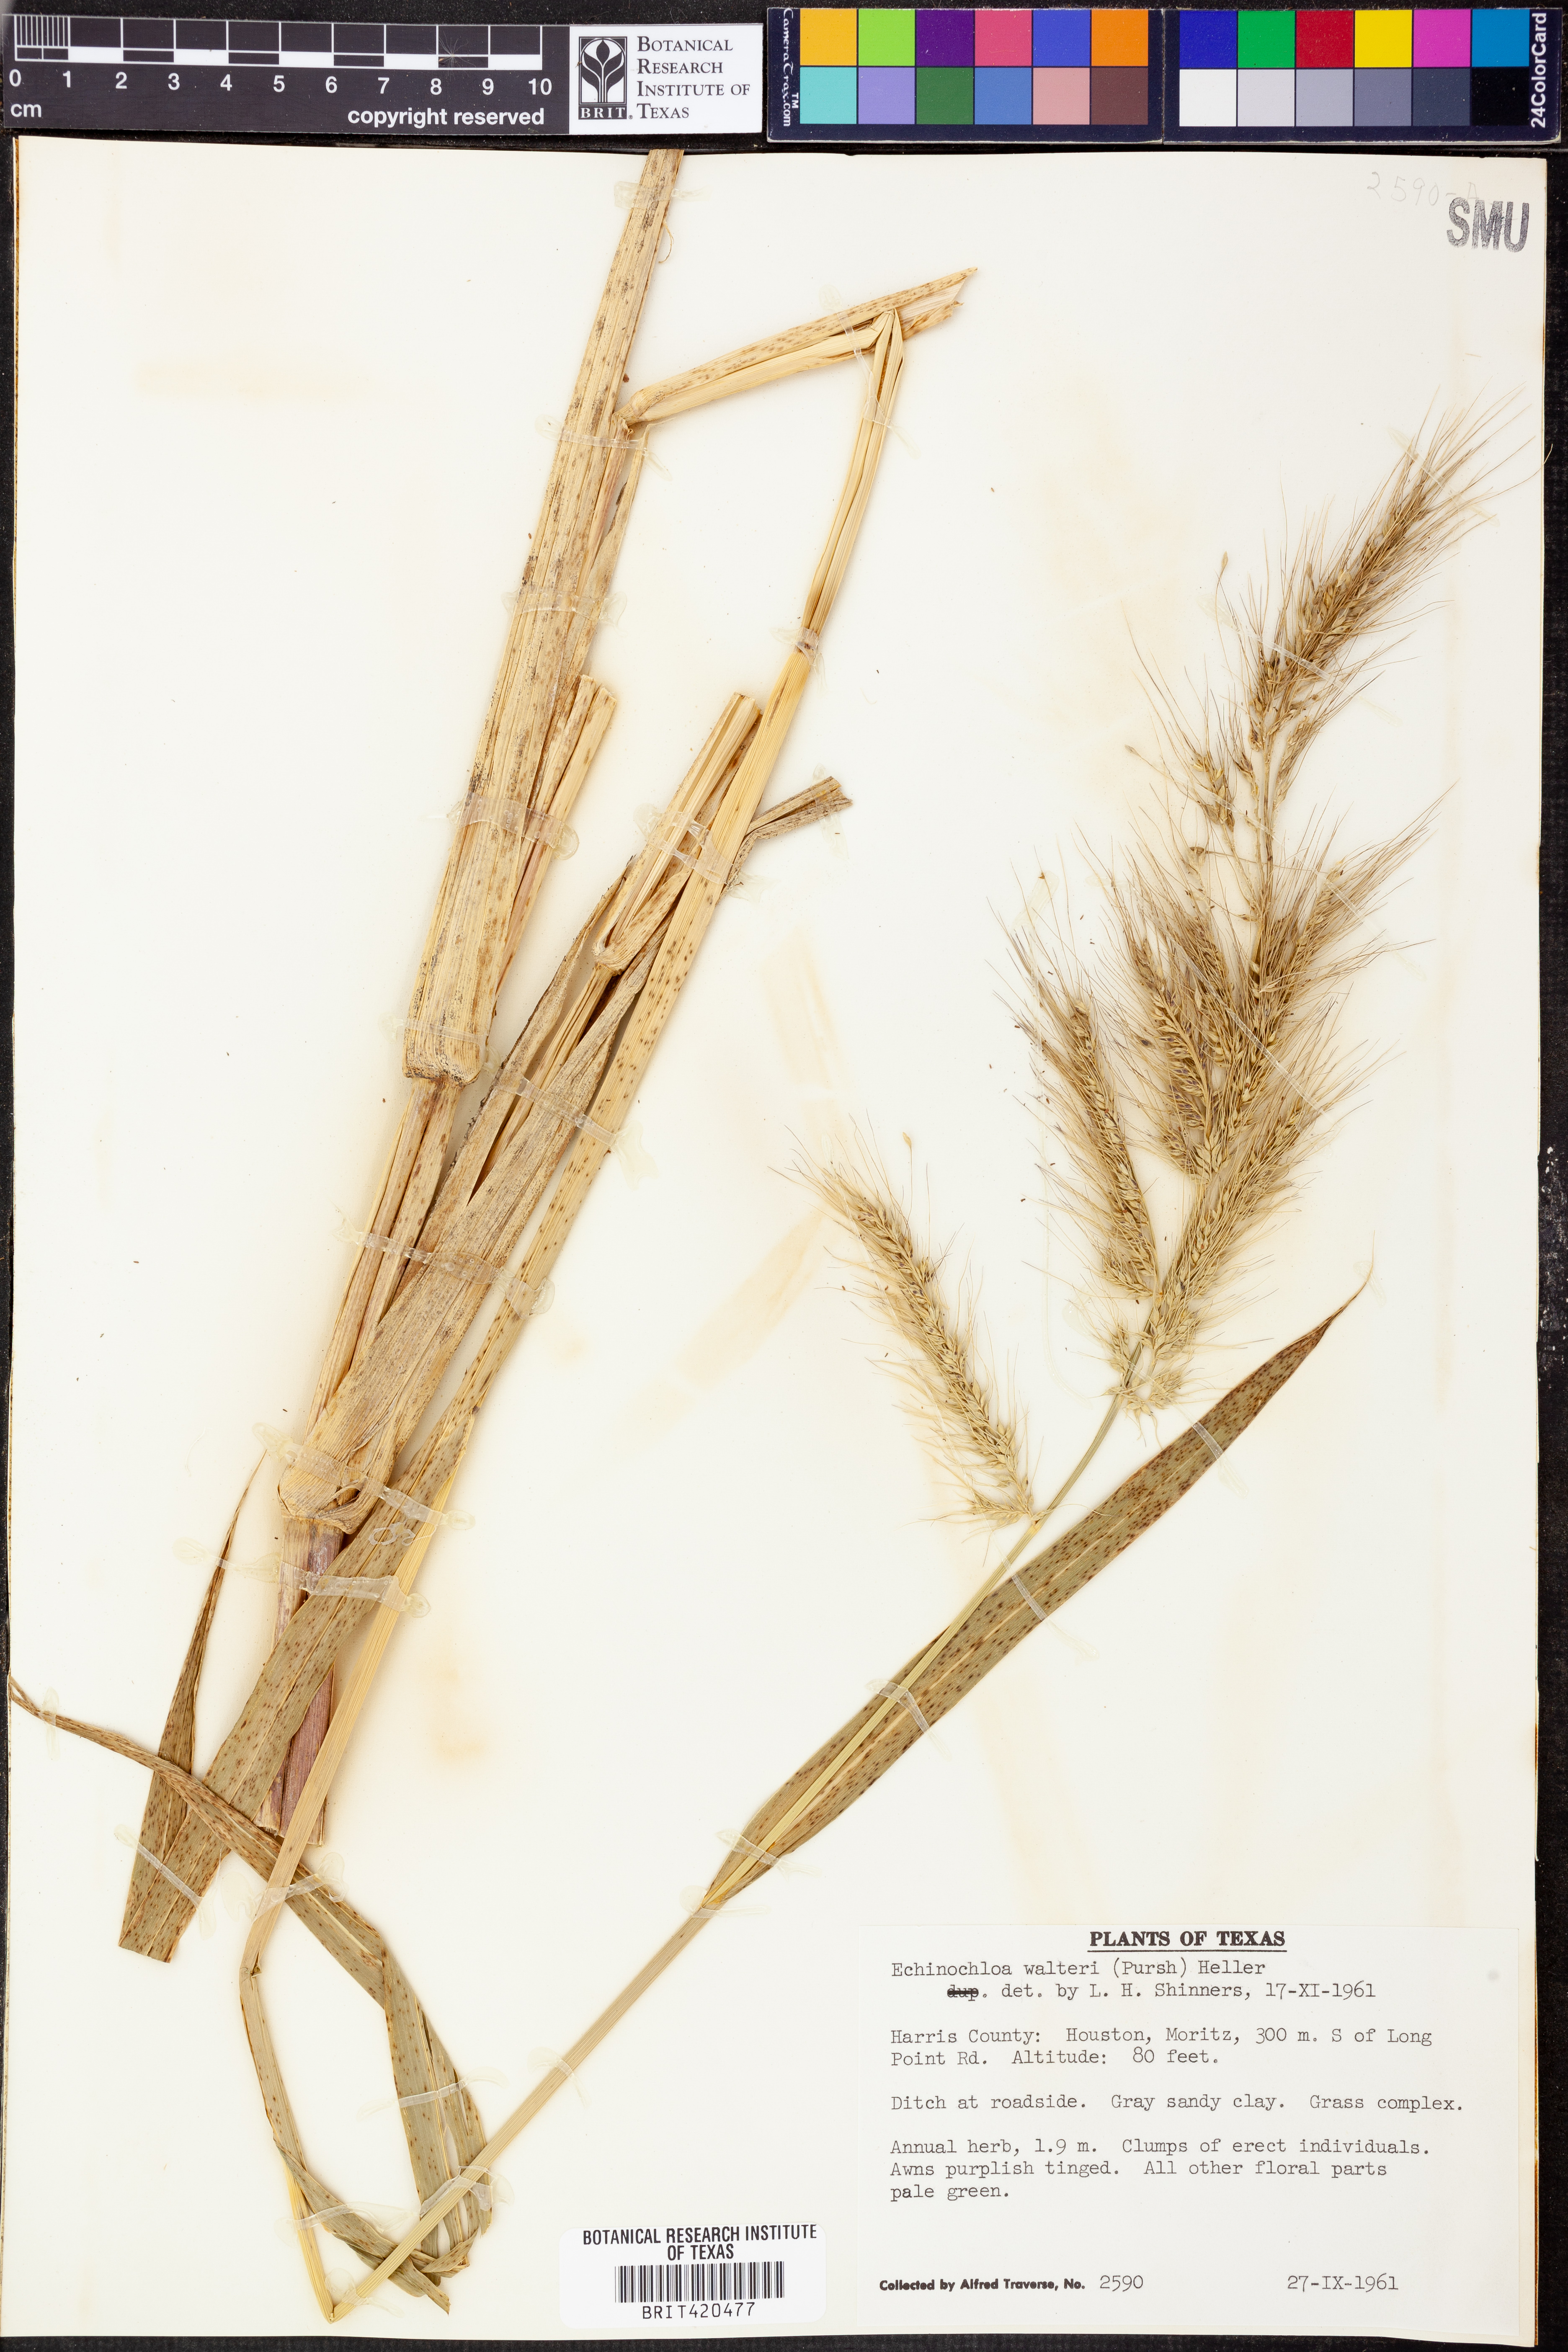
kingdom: Plantae
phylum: Tracheophyta
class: Liliopsida
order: Poales
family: Poaceae
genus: Echinochloa
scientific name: Echinochloa walteri
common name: Coast barnyard grass
